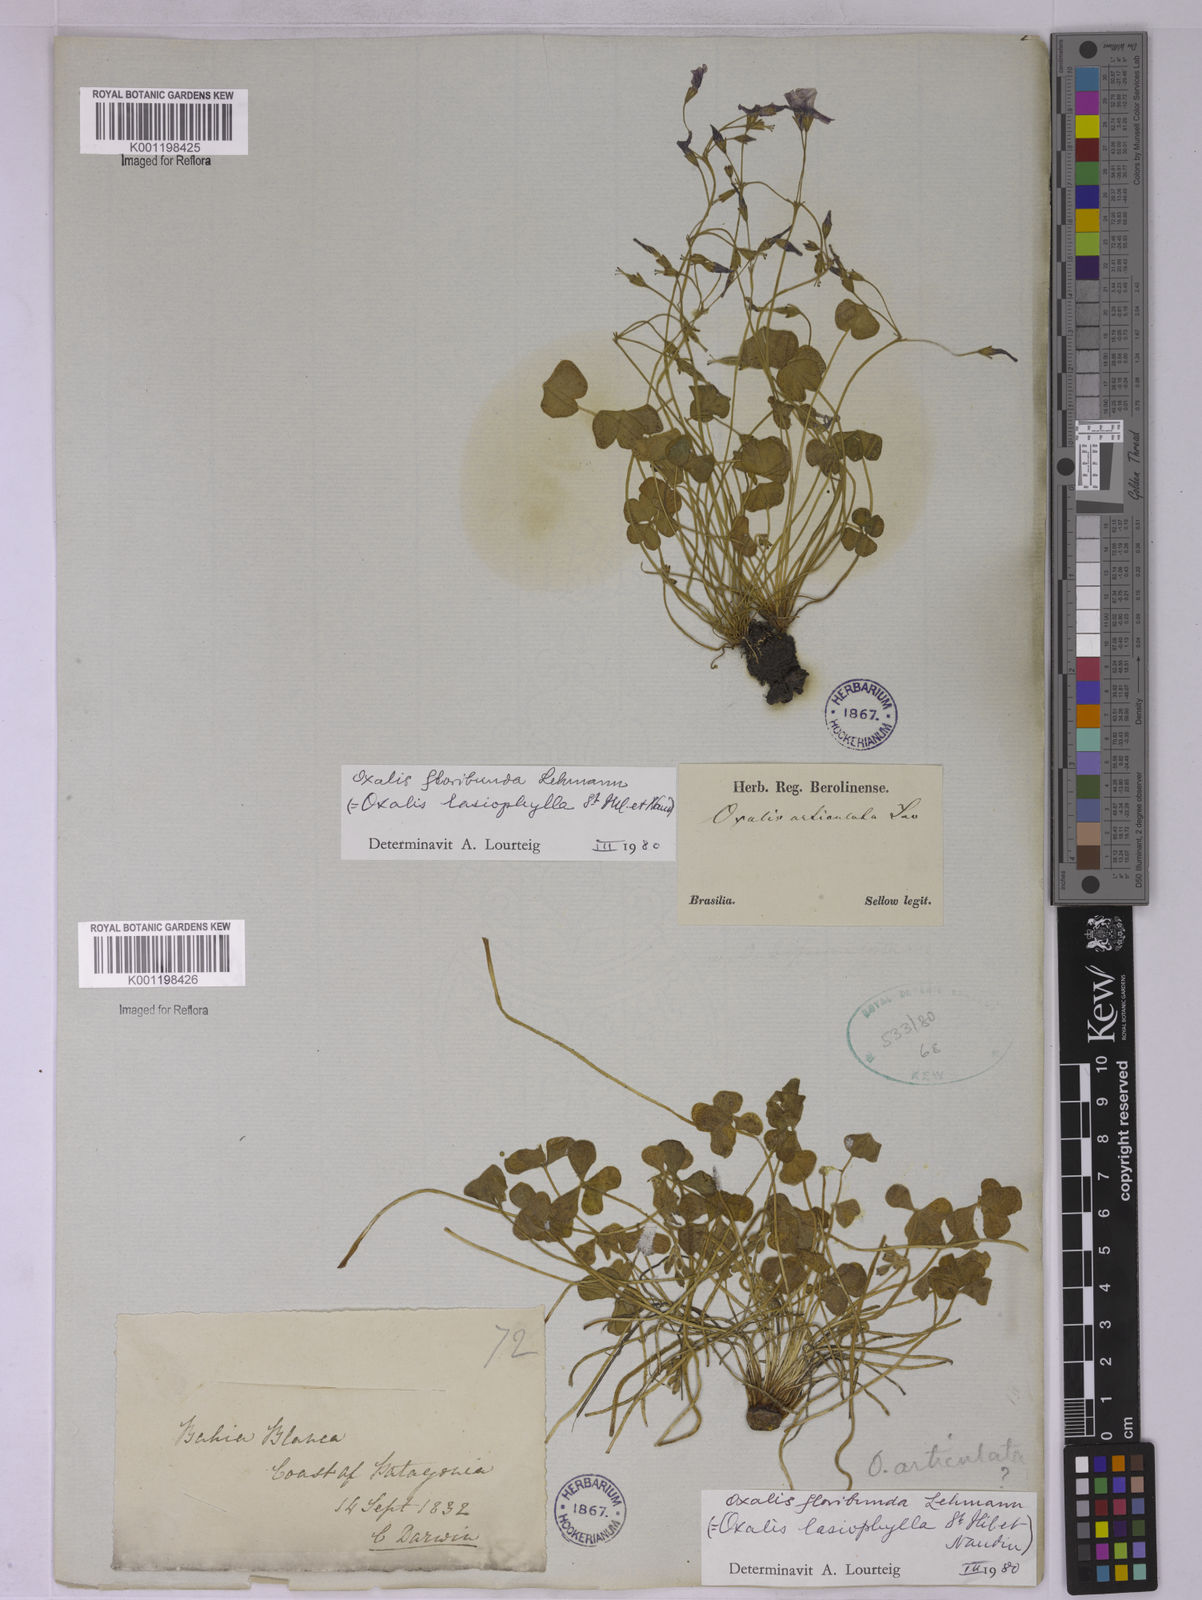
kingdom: Plantae
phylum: Tracheophyta
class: Magnoliopsida
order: Oxalidales
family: Oxalidaceae
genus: Oxalis
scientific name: Oxalis floribunda
